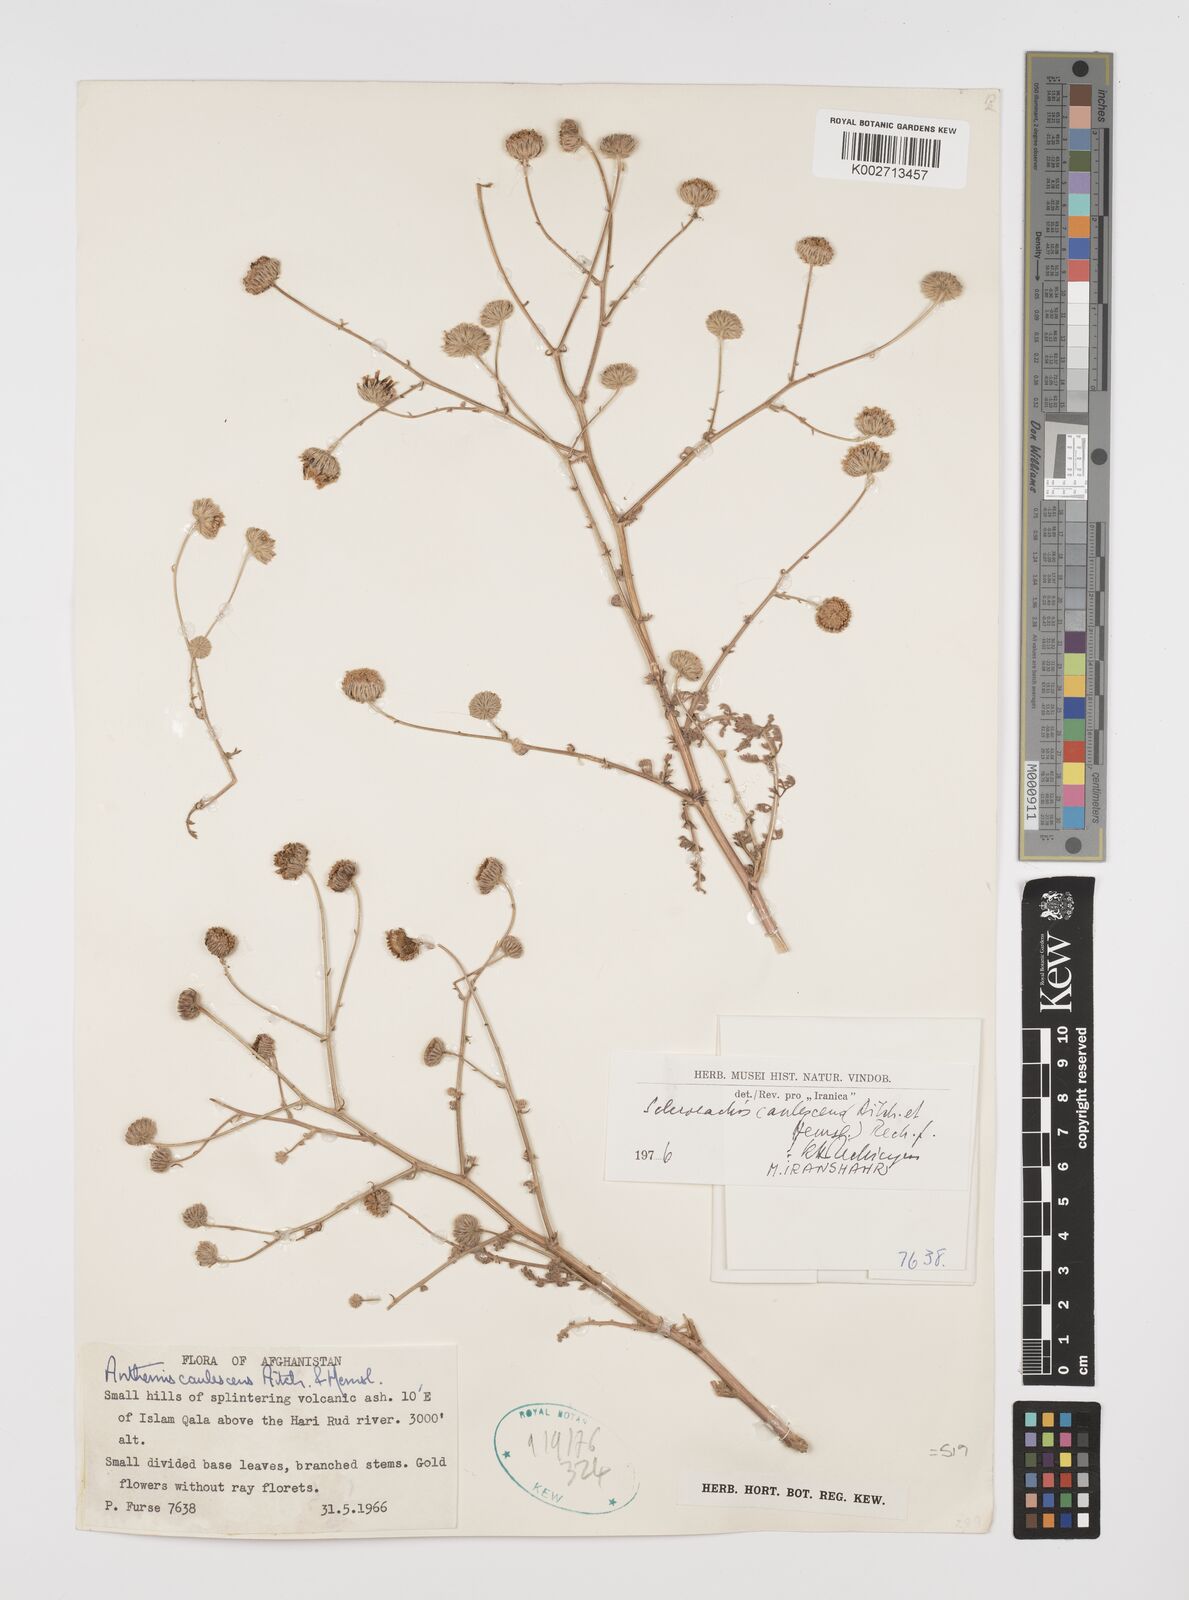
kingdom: Plantae
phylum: Tracheophyta
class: Magnoliopsida
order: Asterales
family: Asteraceae
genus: Sclerorhachis
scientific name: Sclerorhachis caulescens
